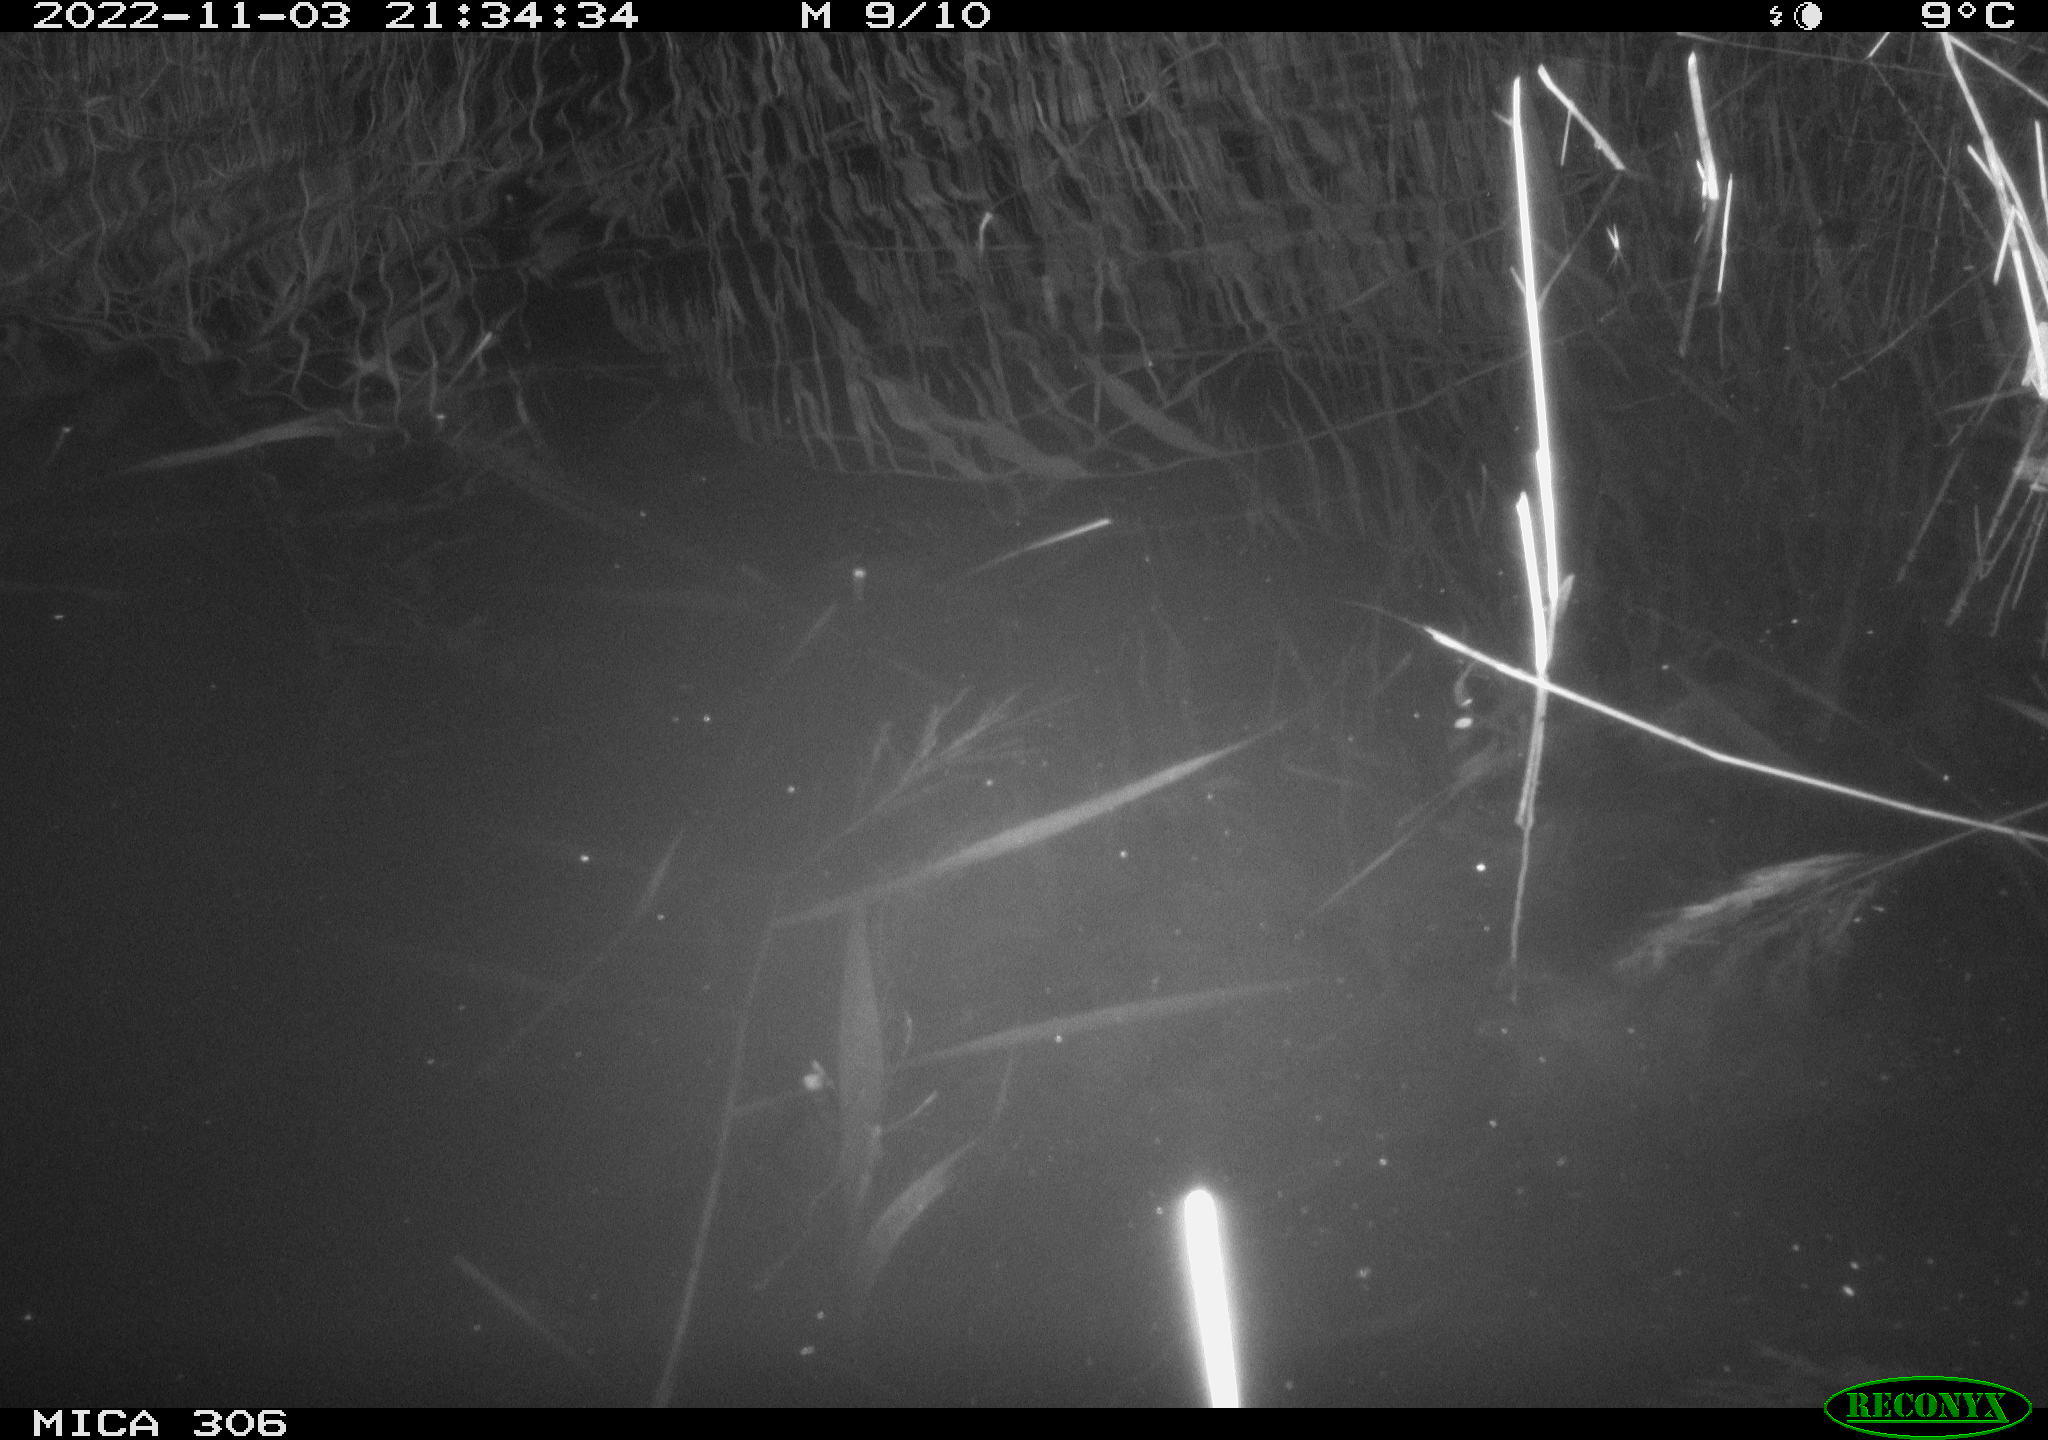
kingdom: Animalia
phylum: Chordata
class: Mammalia
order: Rodentia
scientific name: Rodentia
